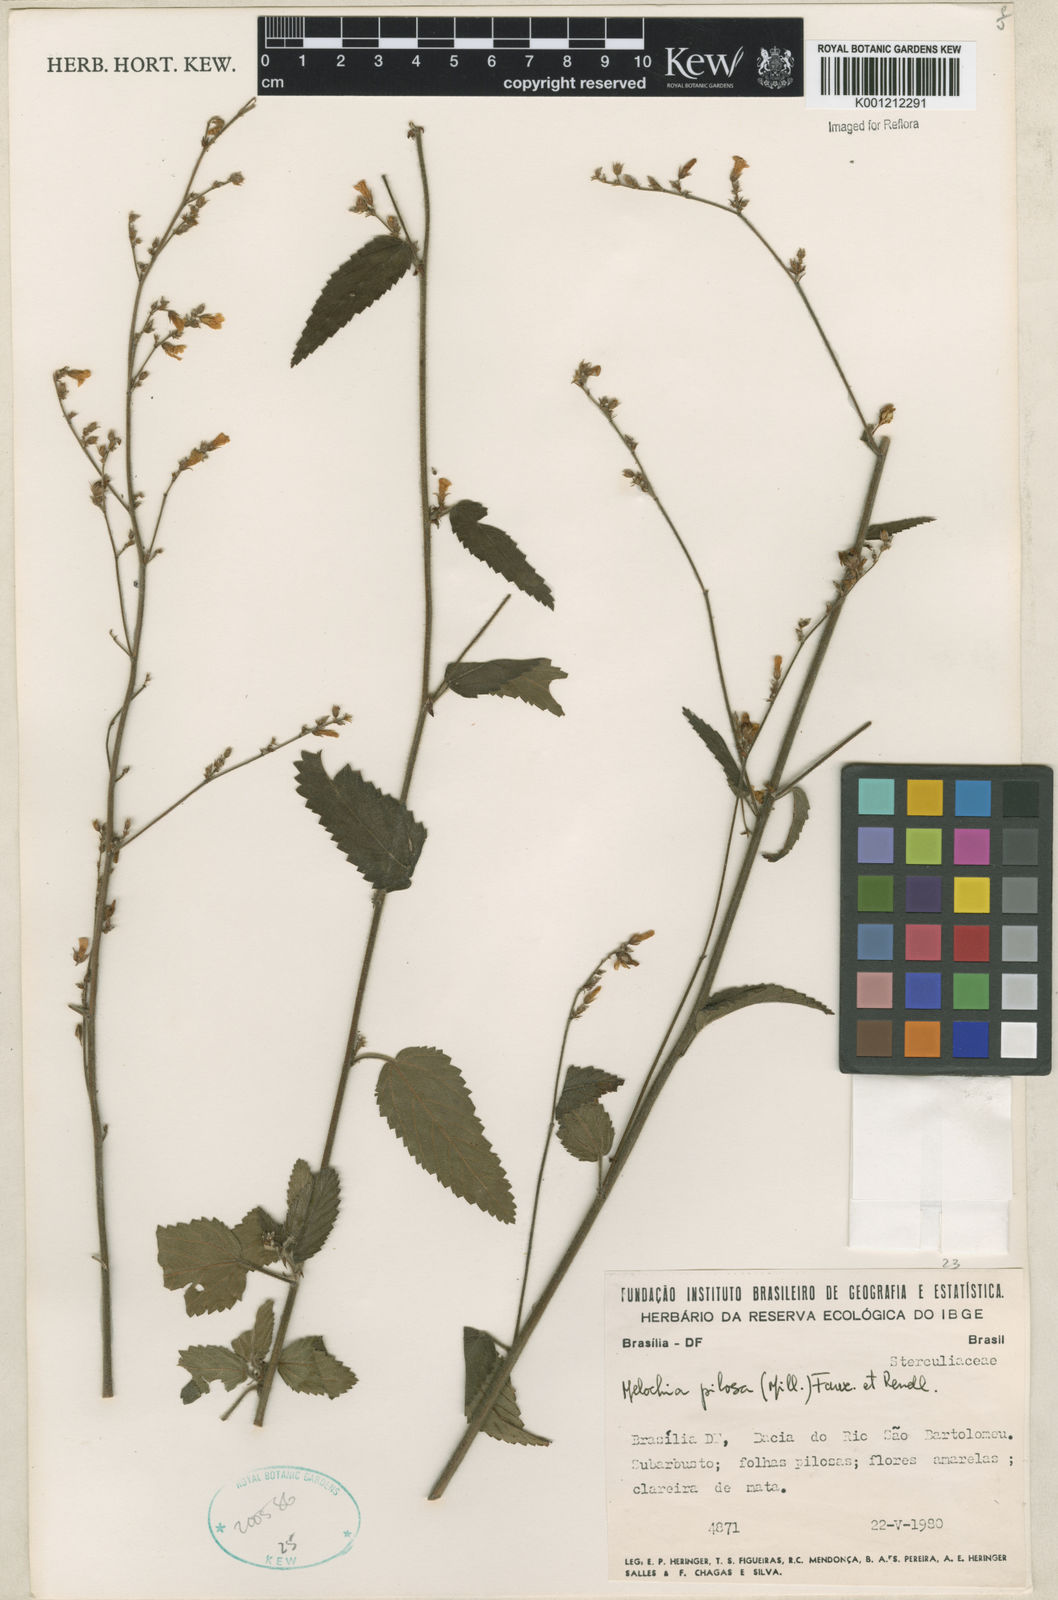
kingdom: Plantae
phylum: Tracheophyta
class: Magnoliopsida
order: Malvales
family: Malvaceae
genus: Melochia
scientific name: Melochia pilosa
